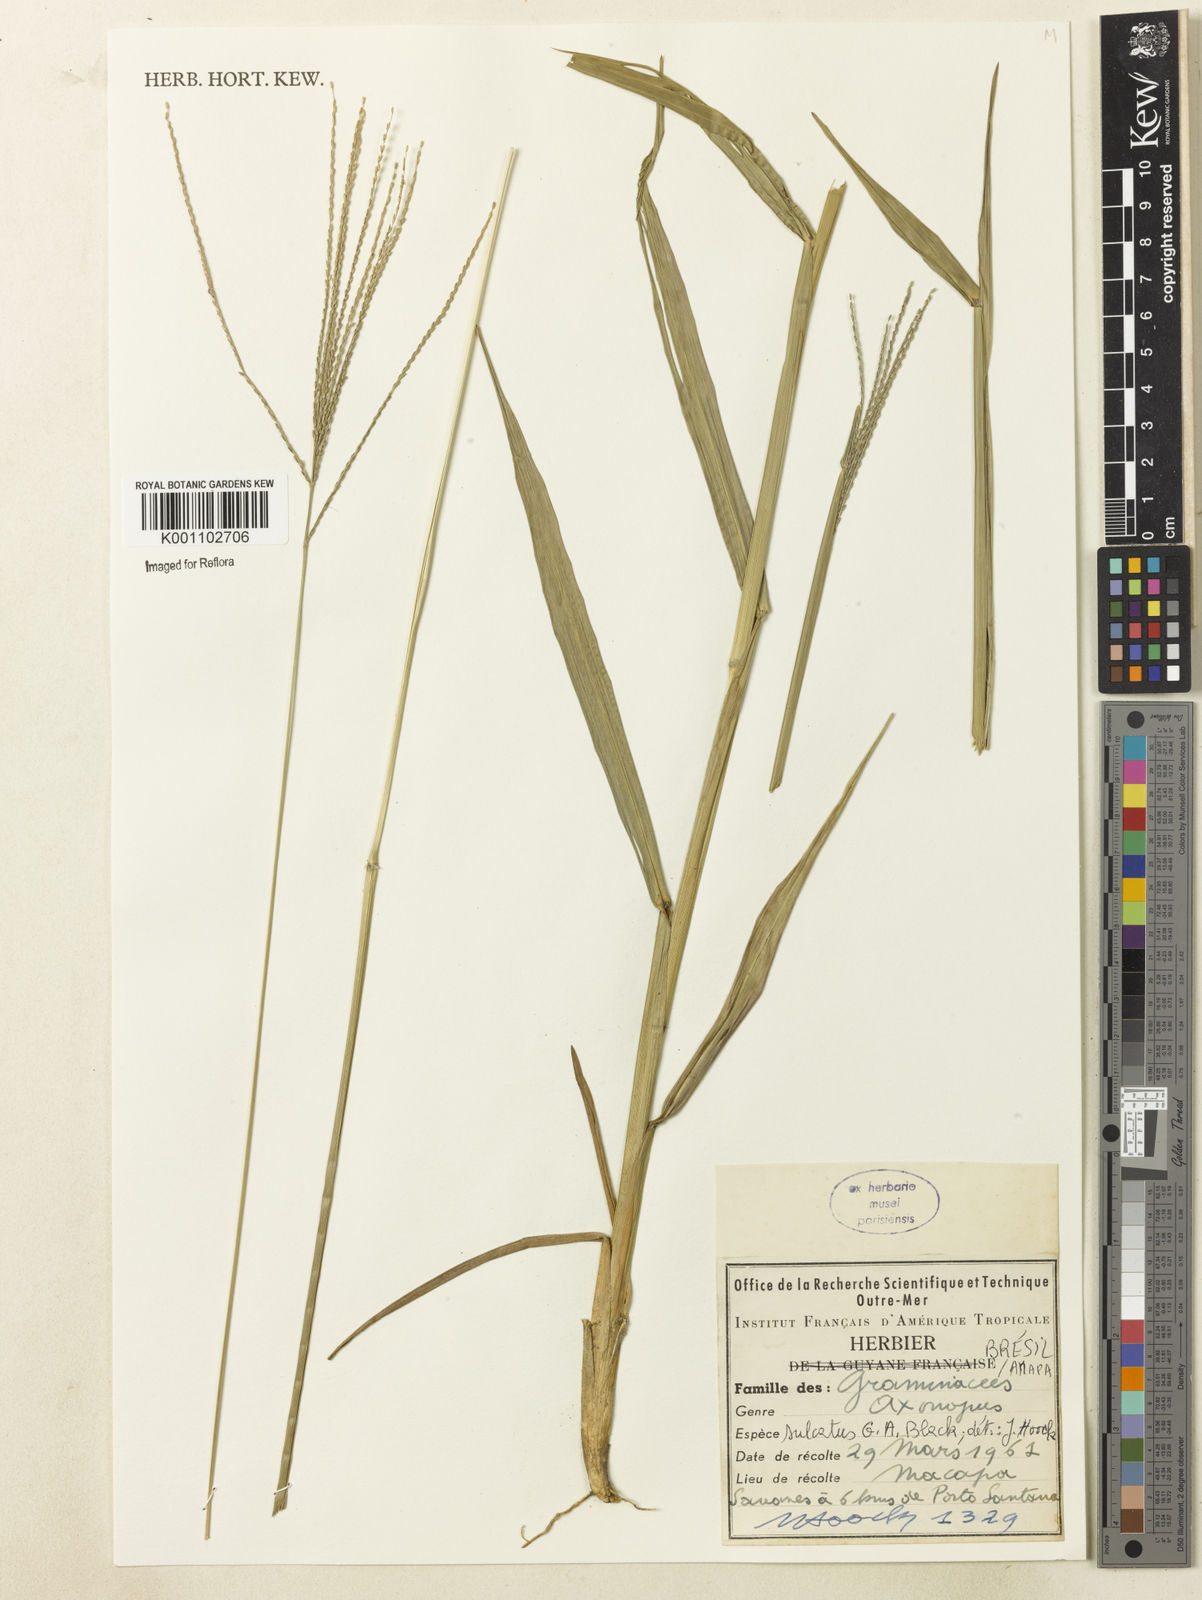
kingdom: Plantae
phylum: Tracheophyta
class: Liliopsida
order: Poales
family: Poaceae
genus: Axonopus
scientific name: Axonopus pubivaginatus
